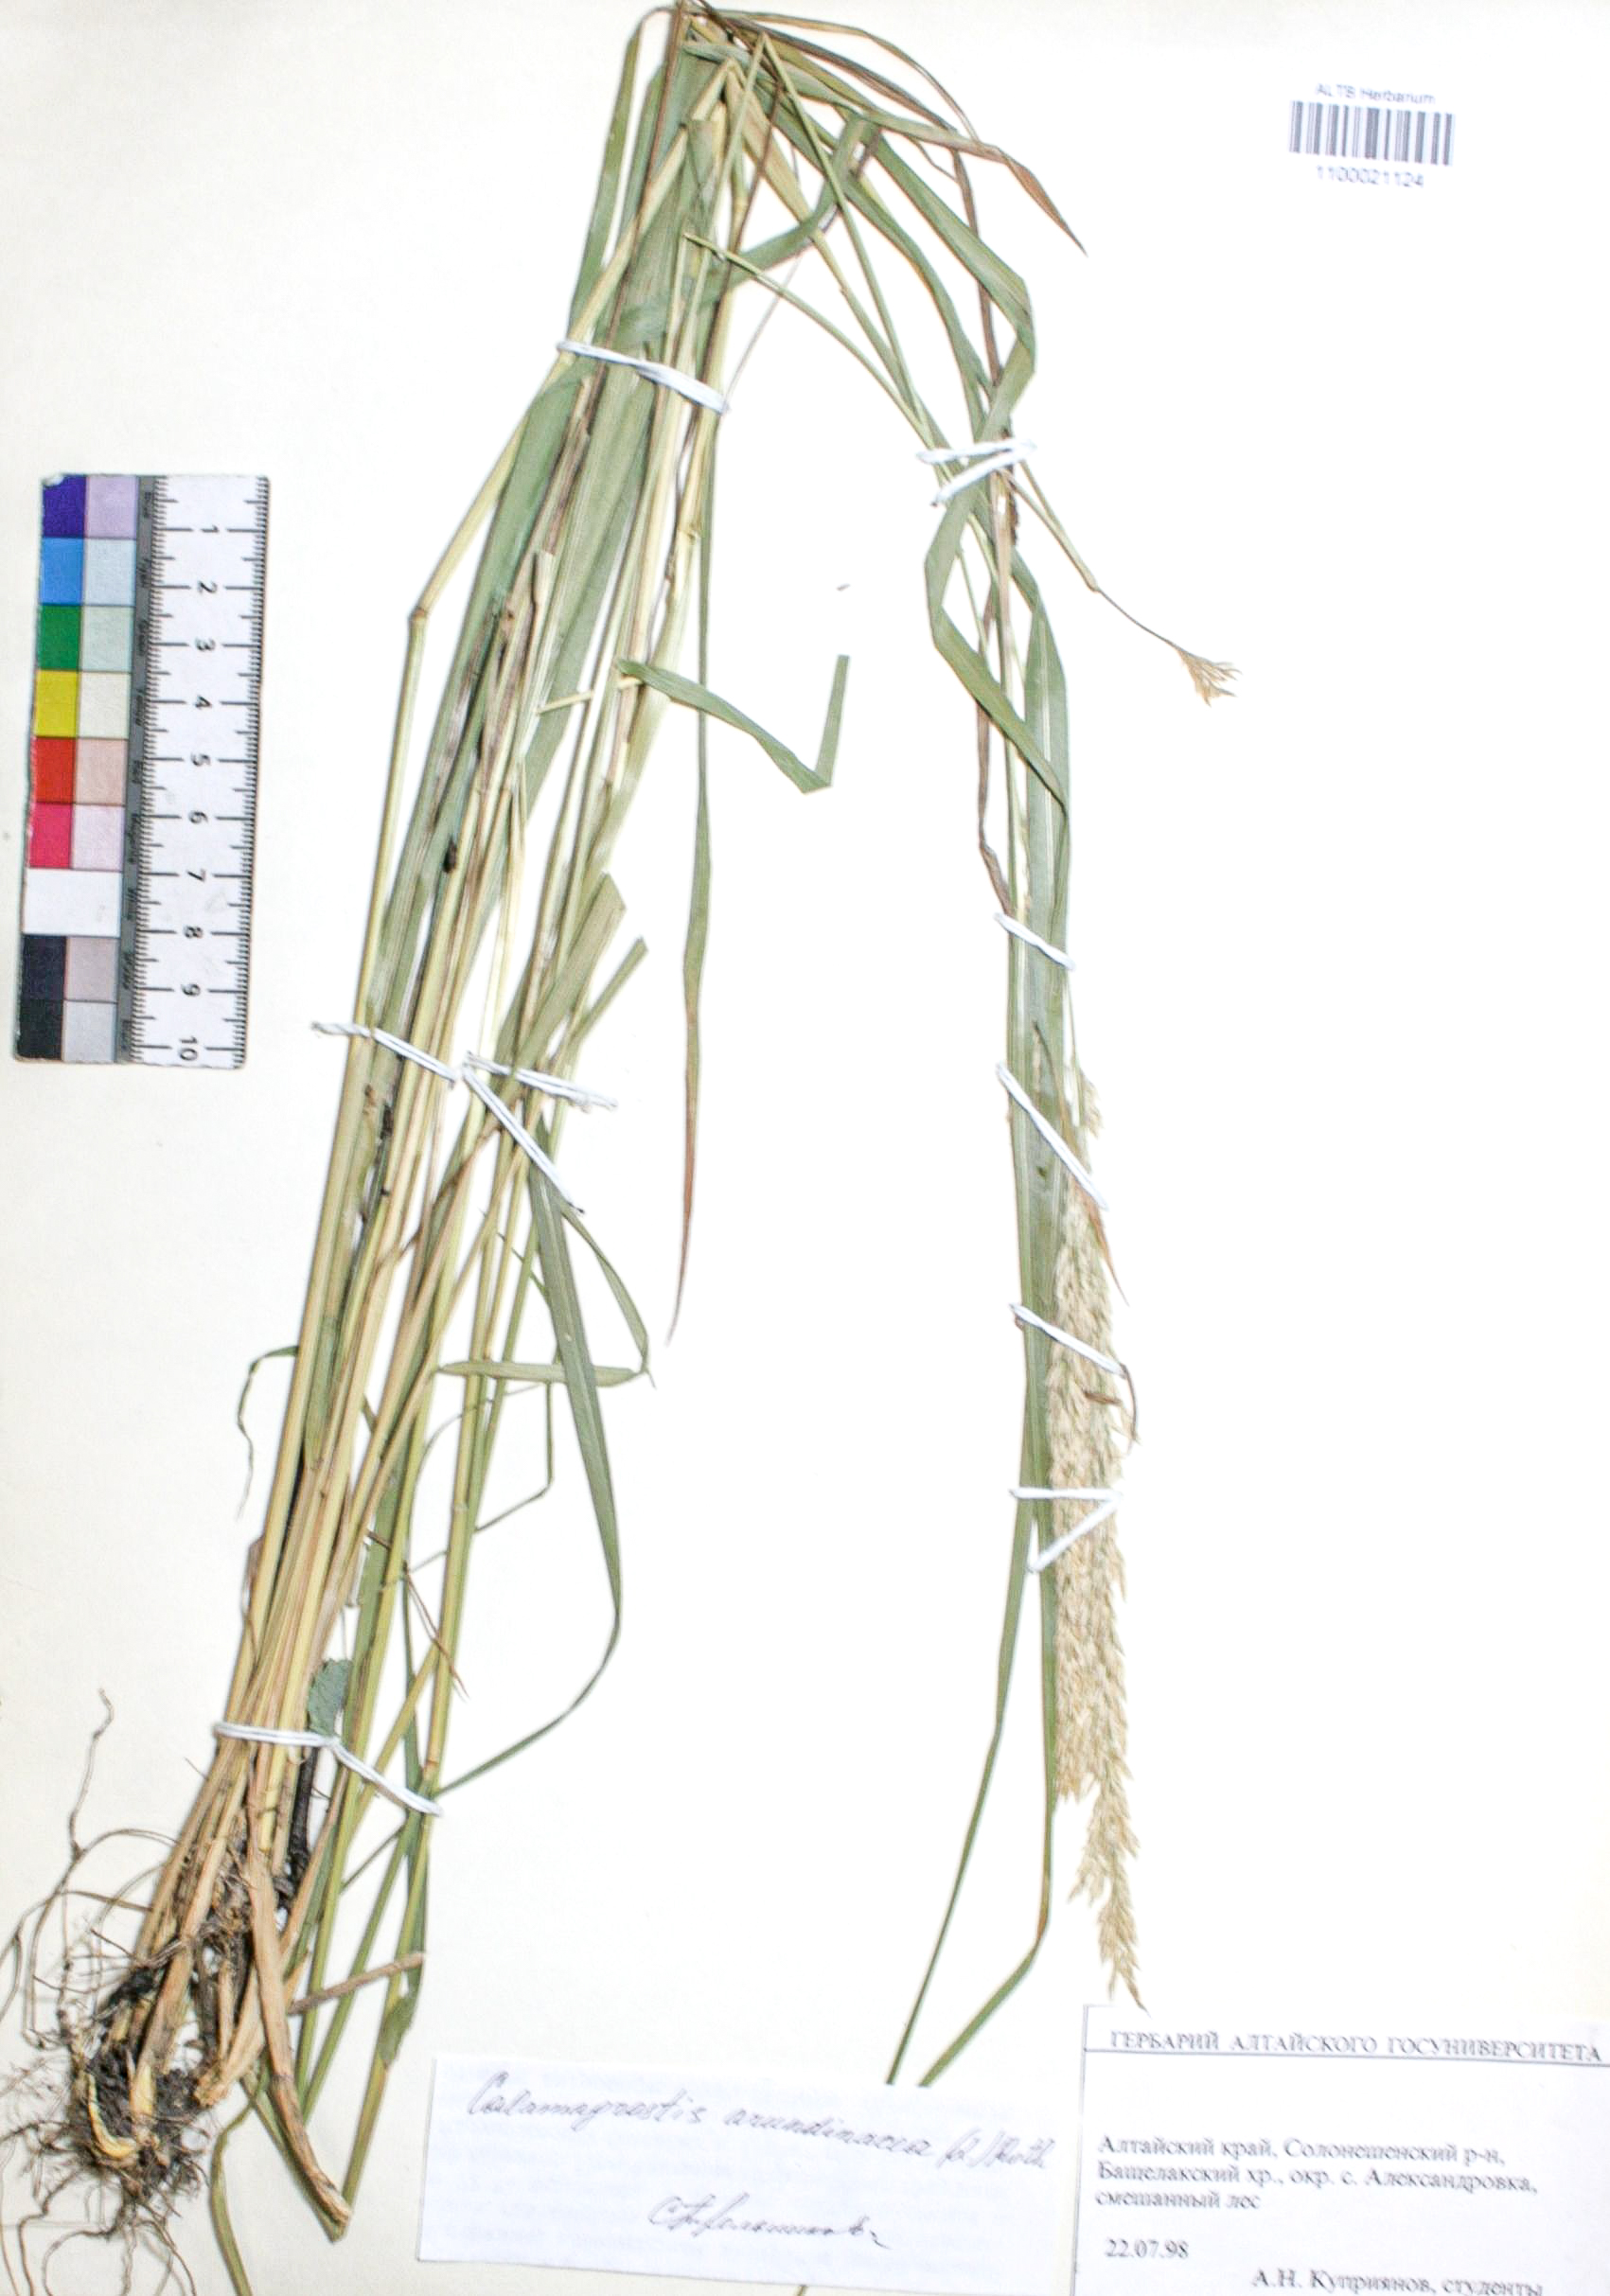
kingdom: Plantae
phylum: Tracheophyta
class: Liliopsida
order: Poales
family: Poaceae
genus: Calamagrostis
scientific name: Calamagrostis arundinacea
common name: Metskastik
